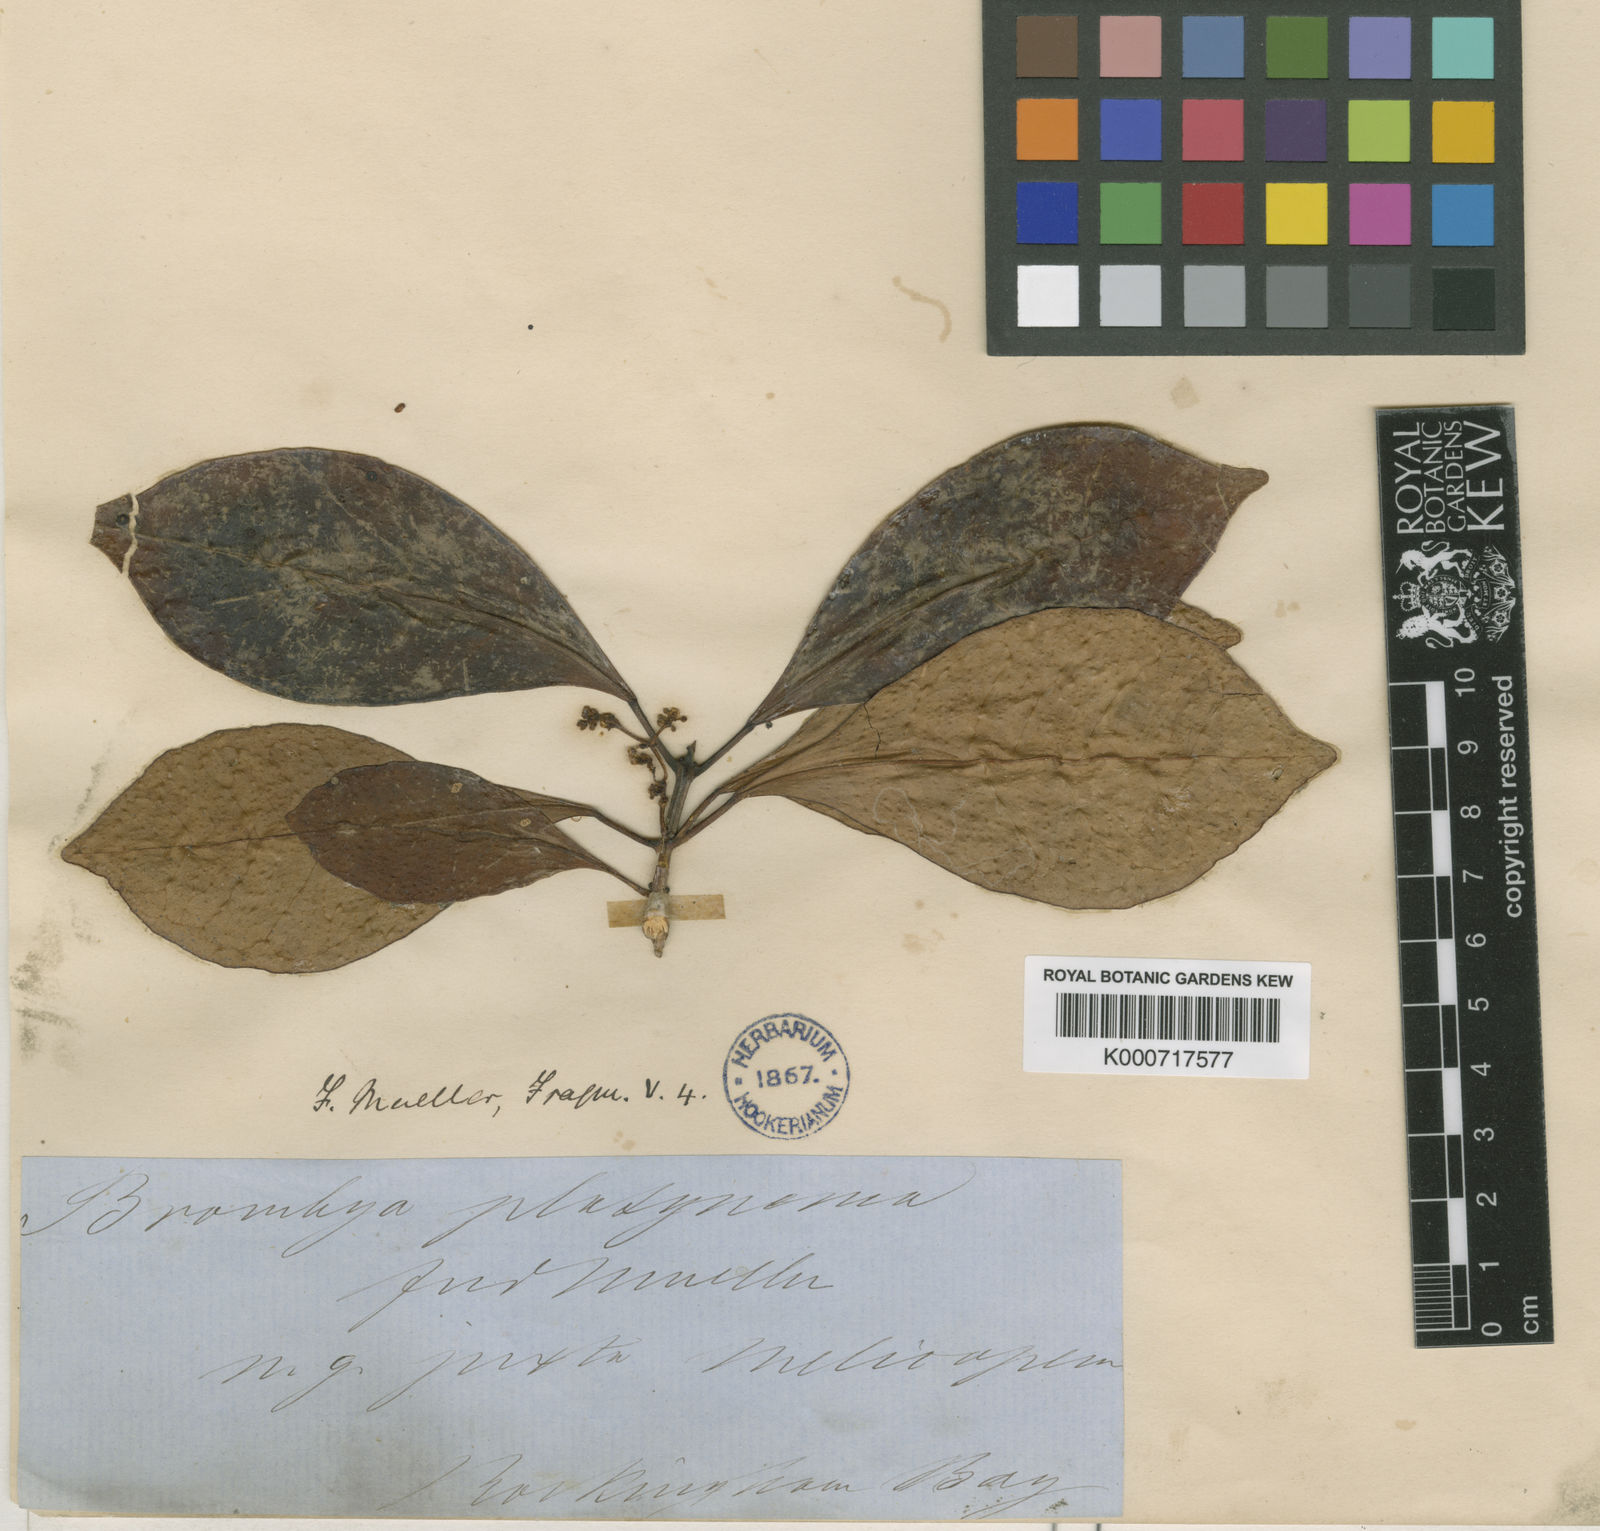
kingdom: Plantae
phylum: Tracheophyta
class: Magnoliopsida
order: Sapindales
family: Rutaceae
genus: Brombya
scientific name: Brombya platynema
